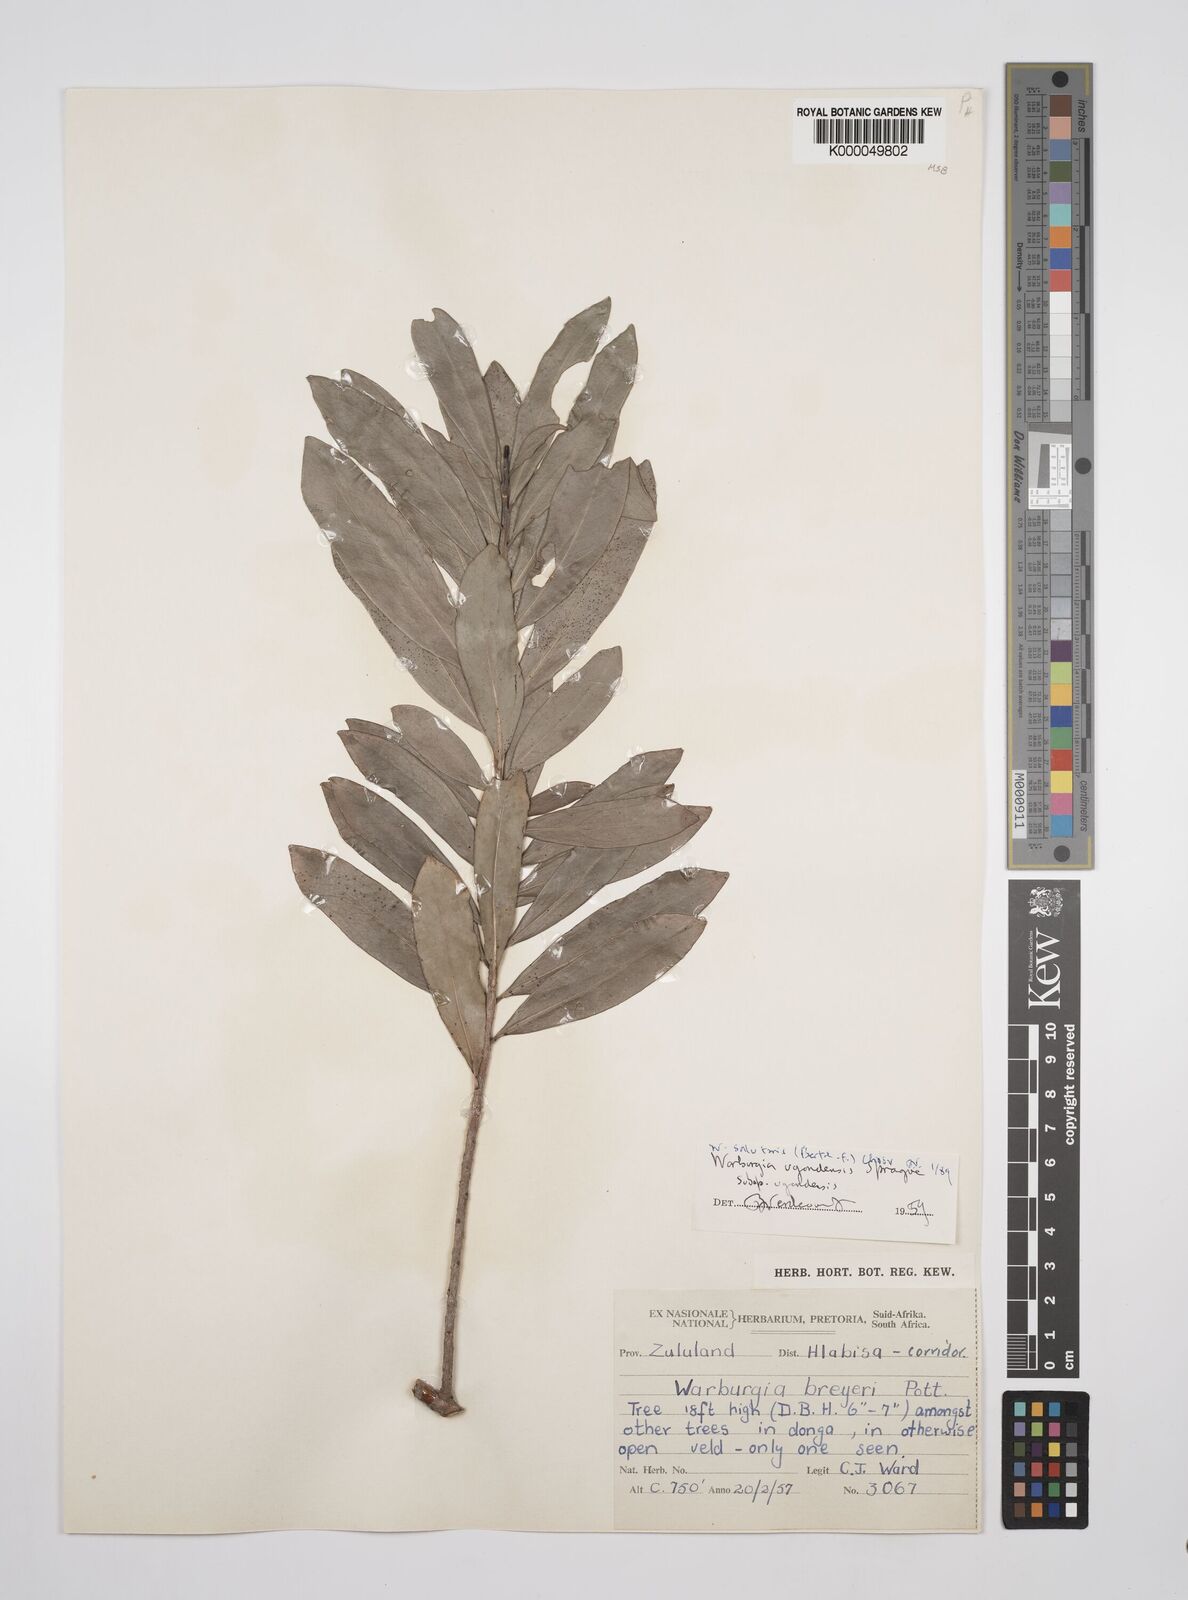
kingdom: Plantae
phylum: Tracheophyta
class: Magnoliopsida
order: Canellales
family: Canellaceae
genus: Warburgia
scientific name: Warburgia salutaris
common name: Pepper bark tree
